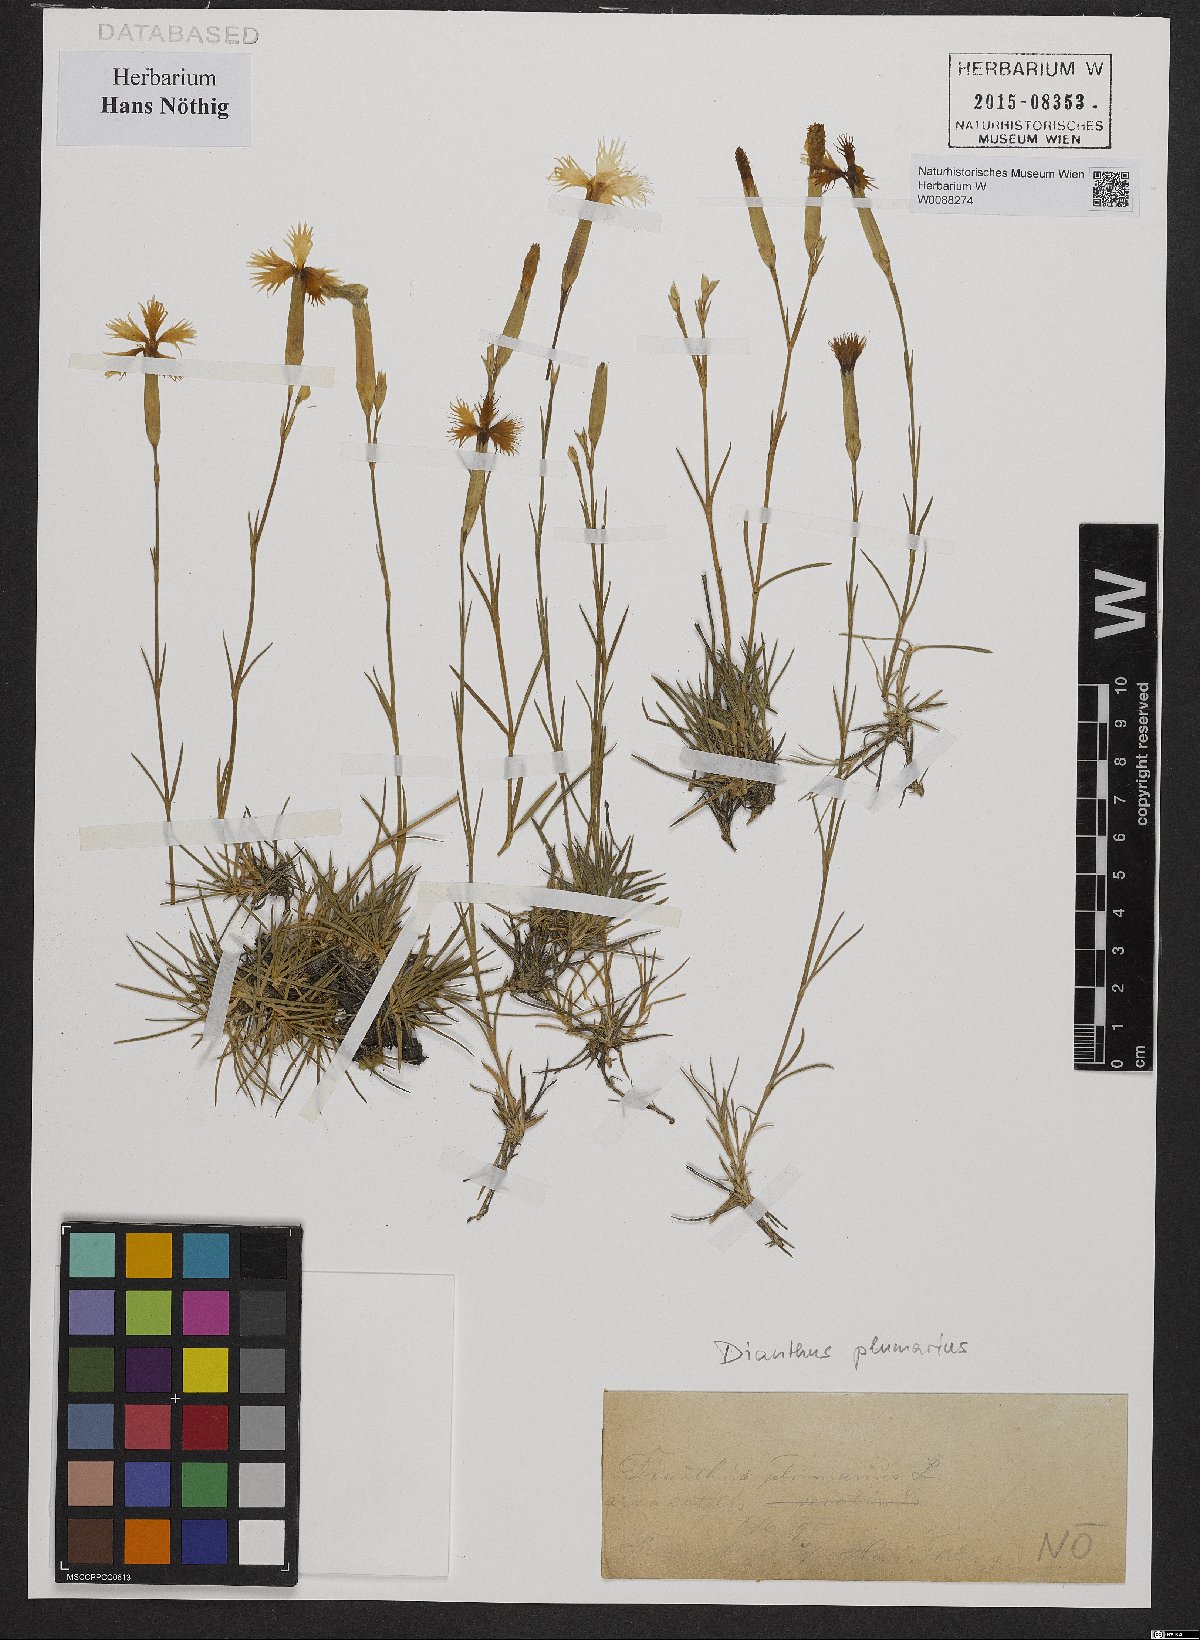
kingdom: Plantae
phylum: Tracheophyta
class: Magnoliopsida
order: Caryophyllales
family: Caryophyllaceae
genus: Dianthus
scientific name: Dianthus plumarius
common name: Pink
